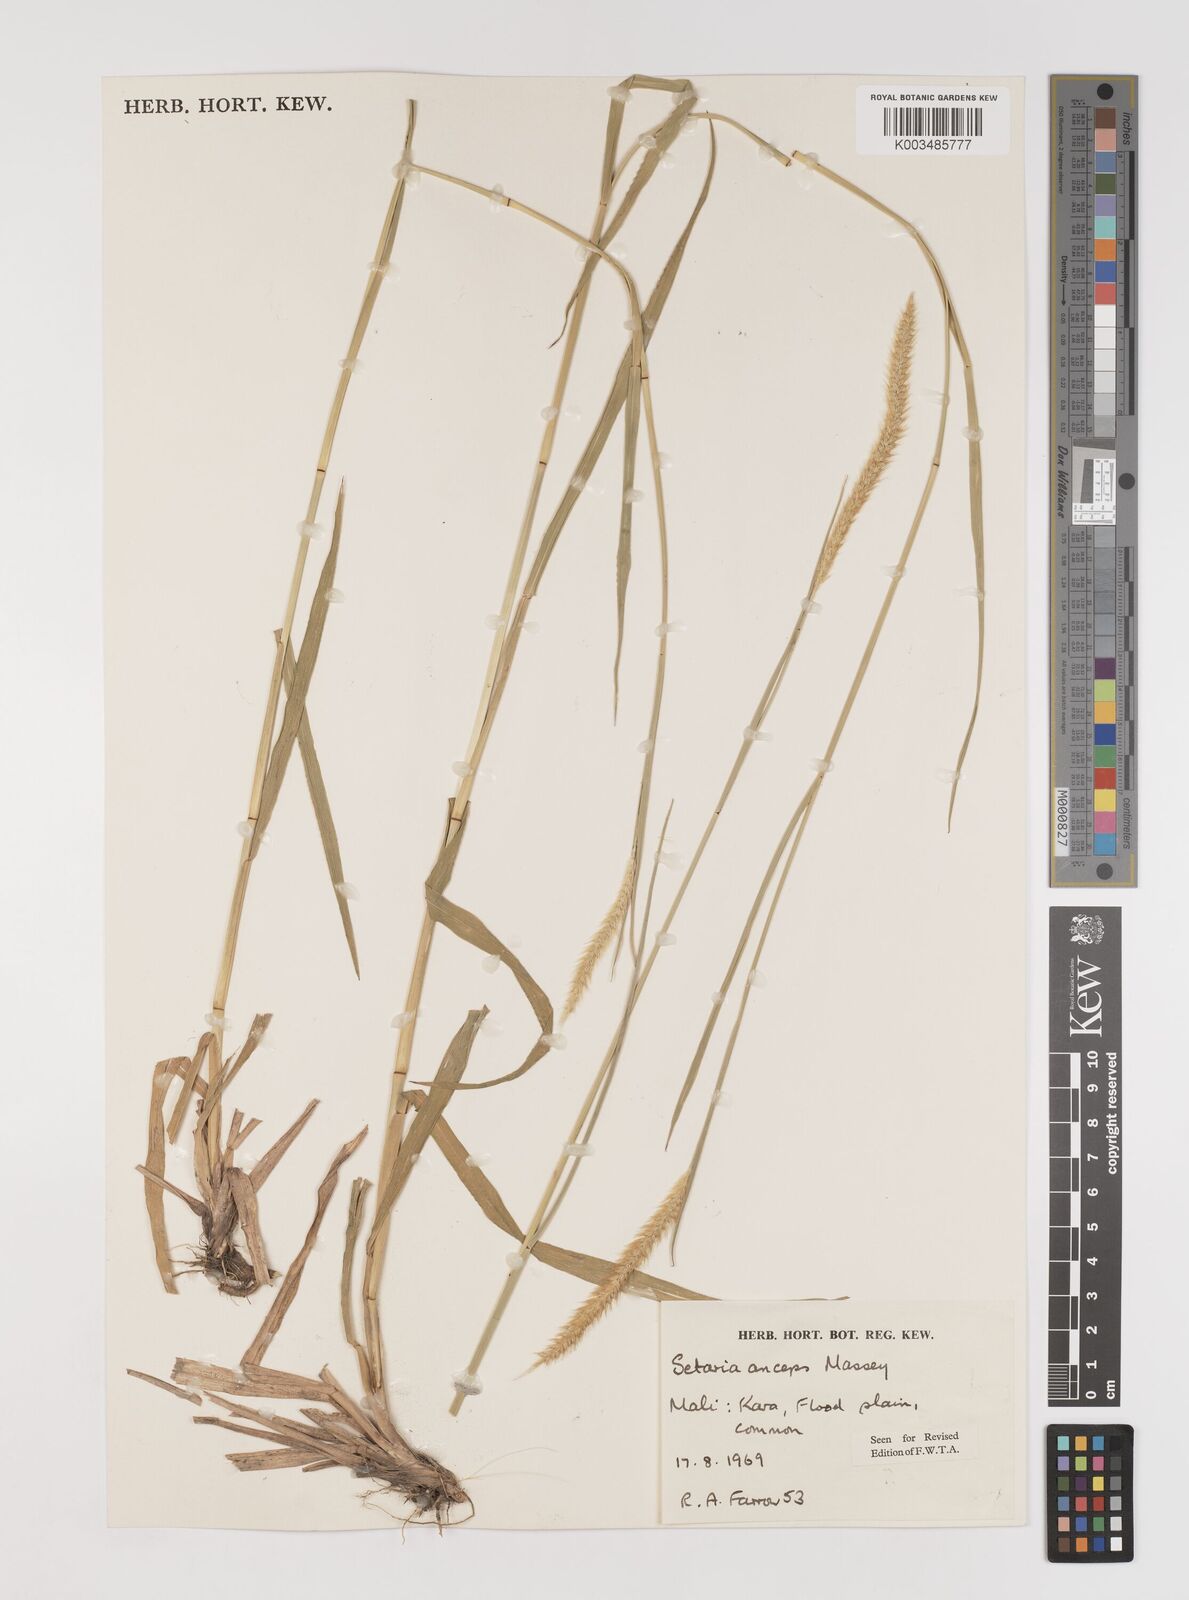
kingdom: Plantae
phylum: Tracheophyta
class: Liliopsida
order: Poales
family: Poaceae
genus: Setaria
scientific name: Setaria sphacelata
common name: African bristlegrass
